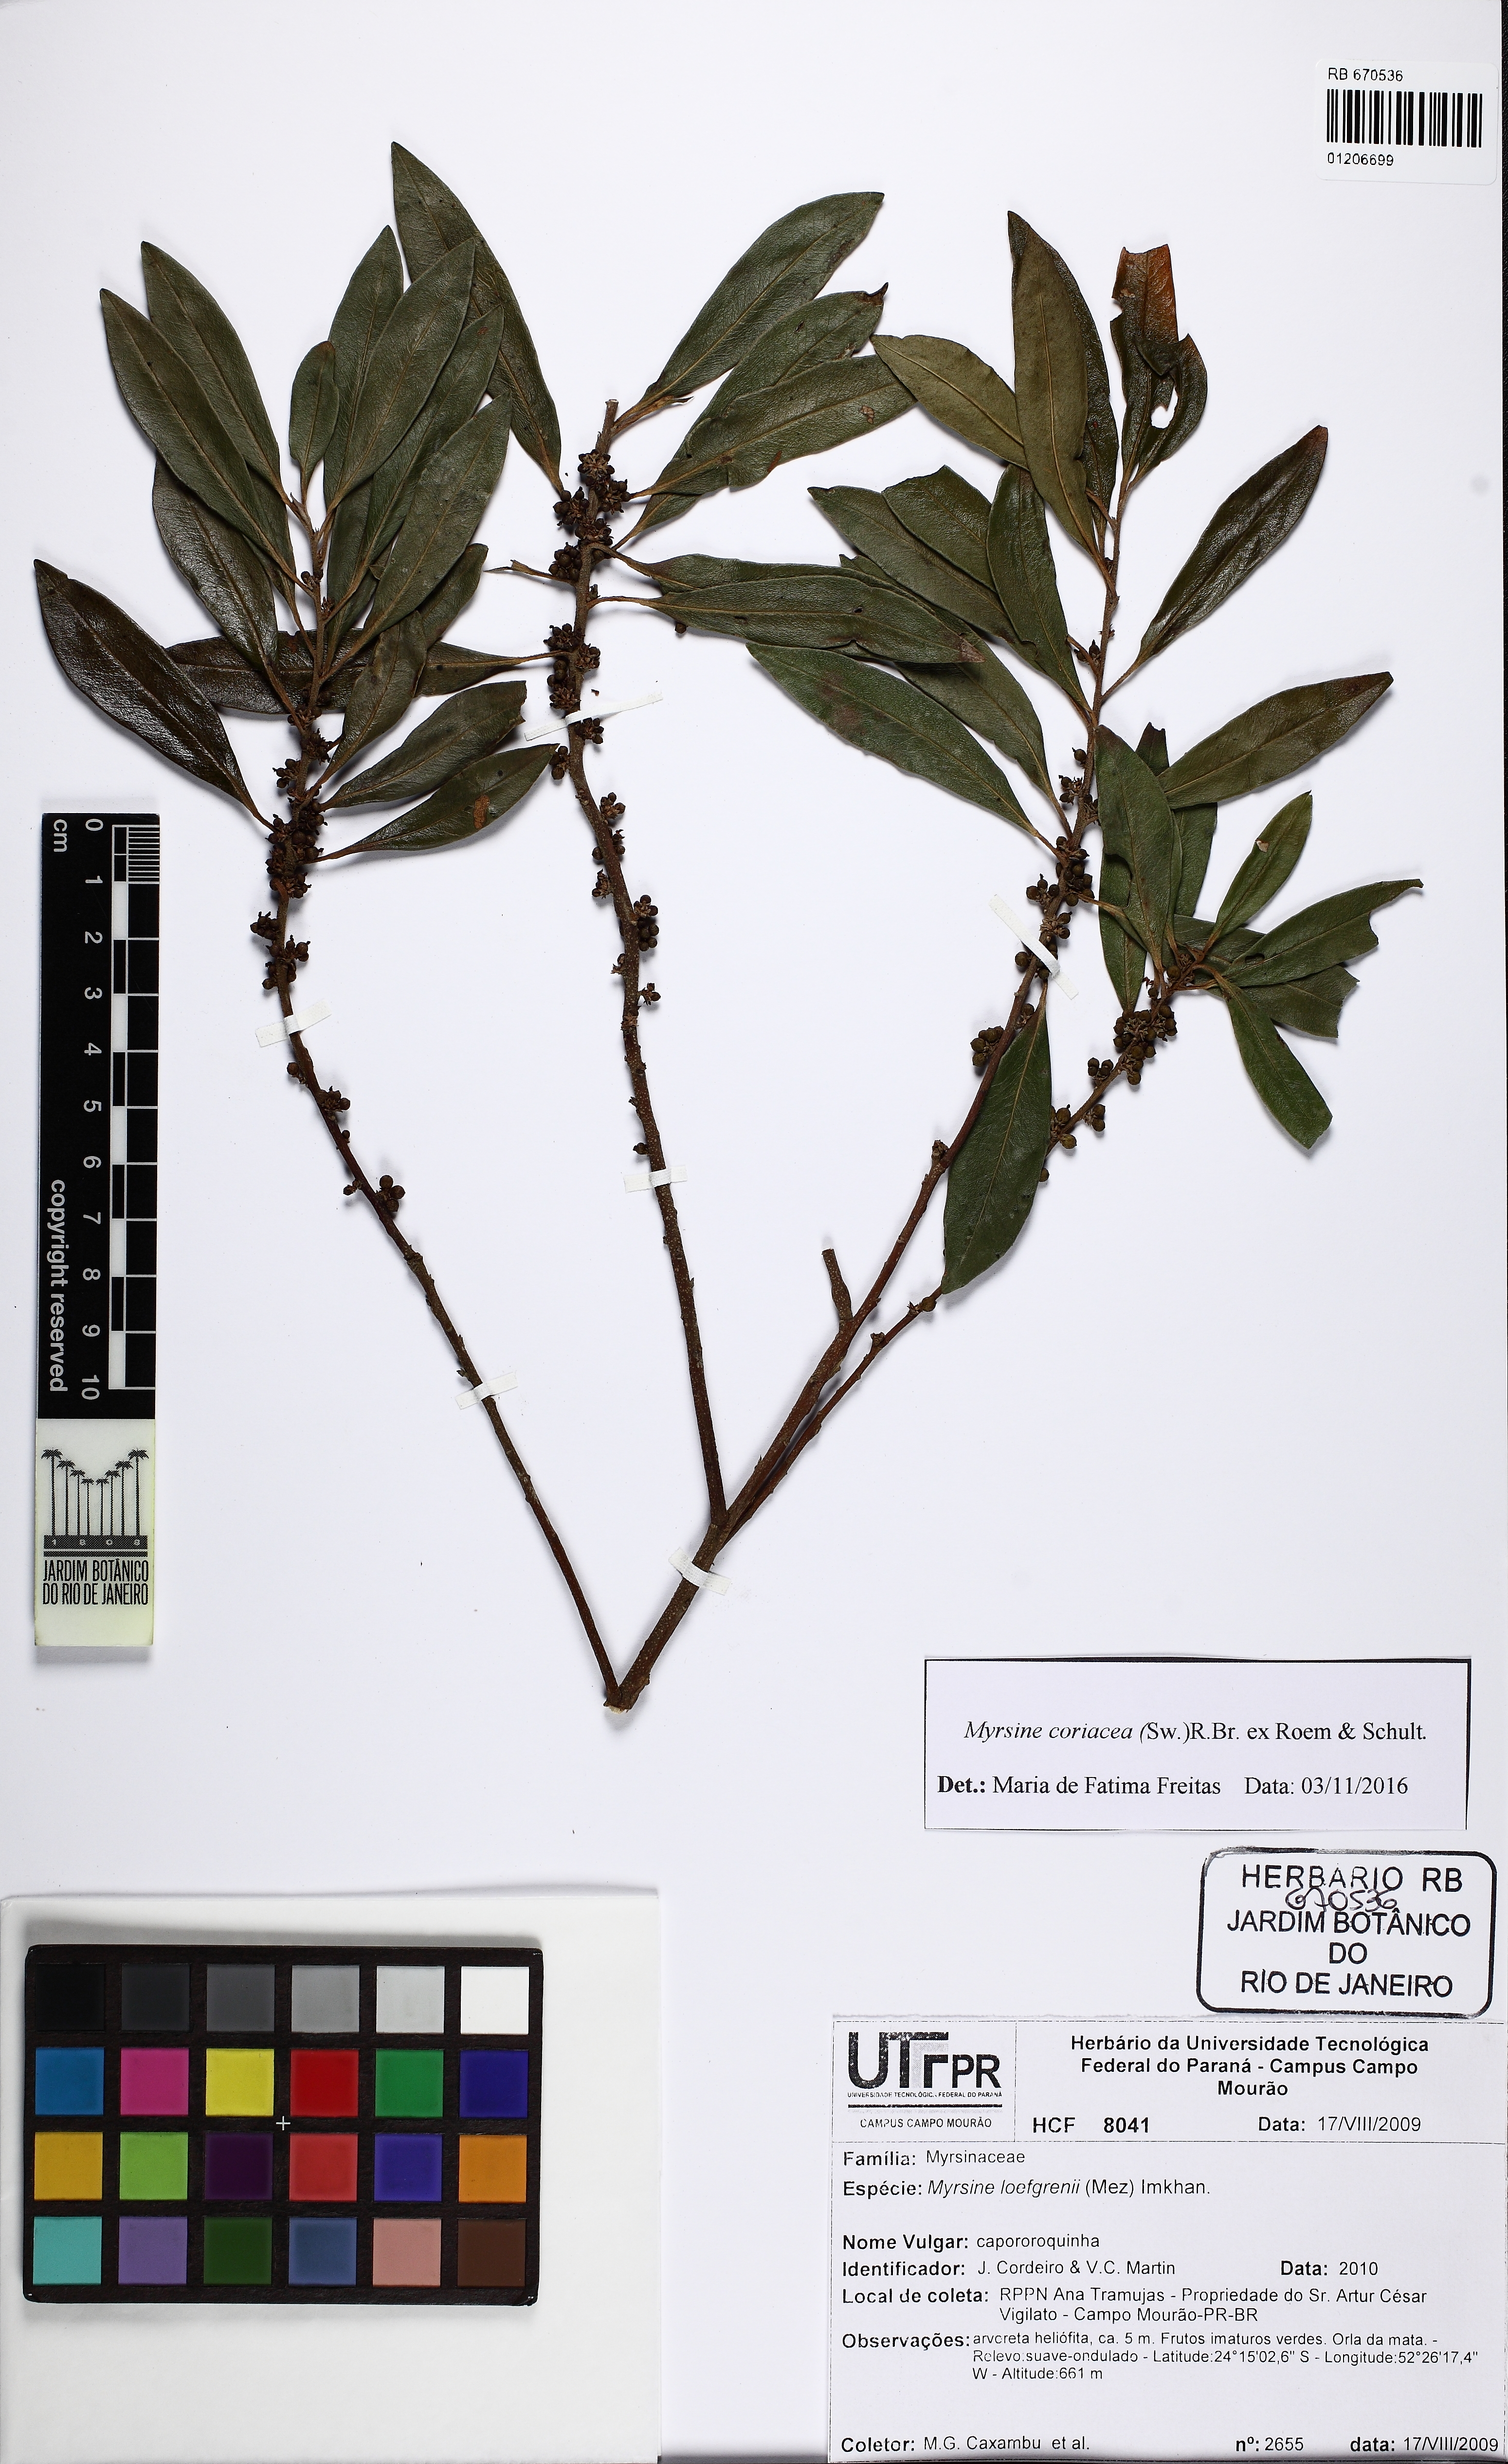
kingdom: Plantae
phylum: Tracheophyta
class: Magnoliopsida
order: Ericales
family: Primulaceae
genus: Myrsine
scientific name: Myrsine coriacea
